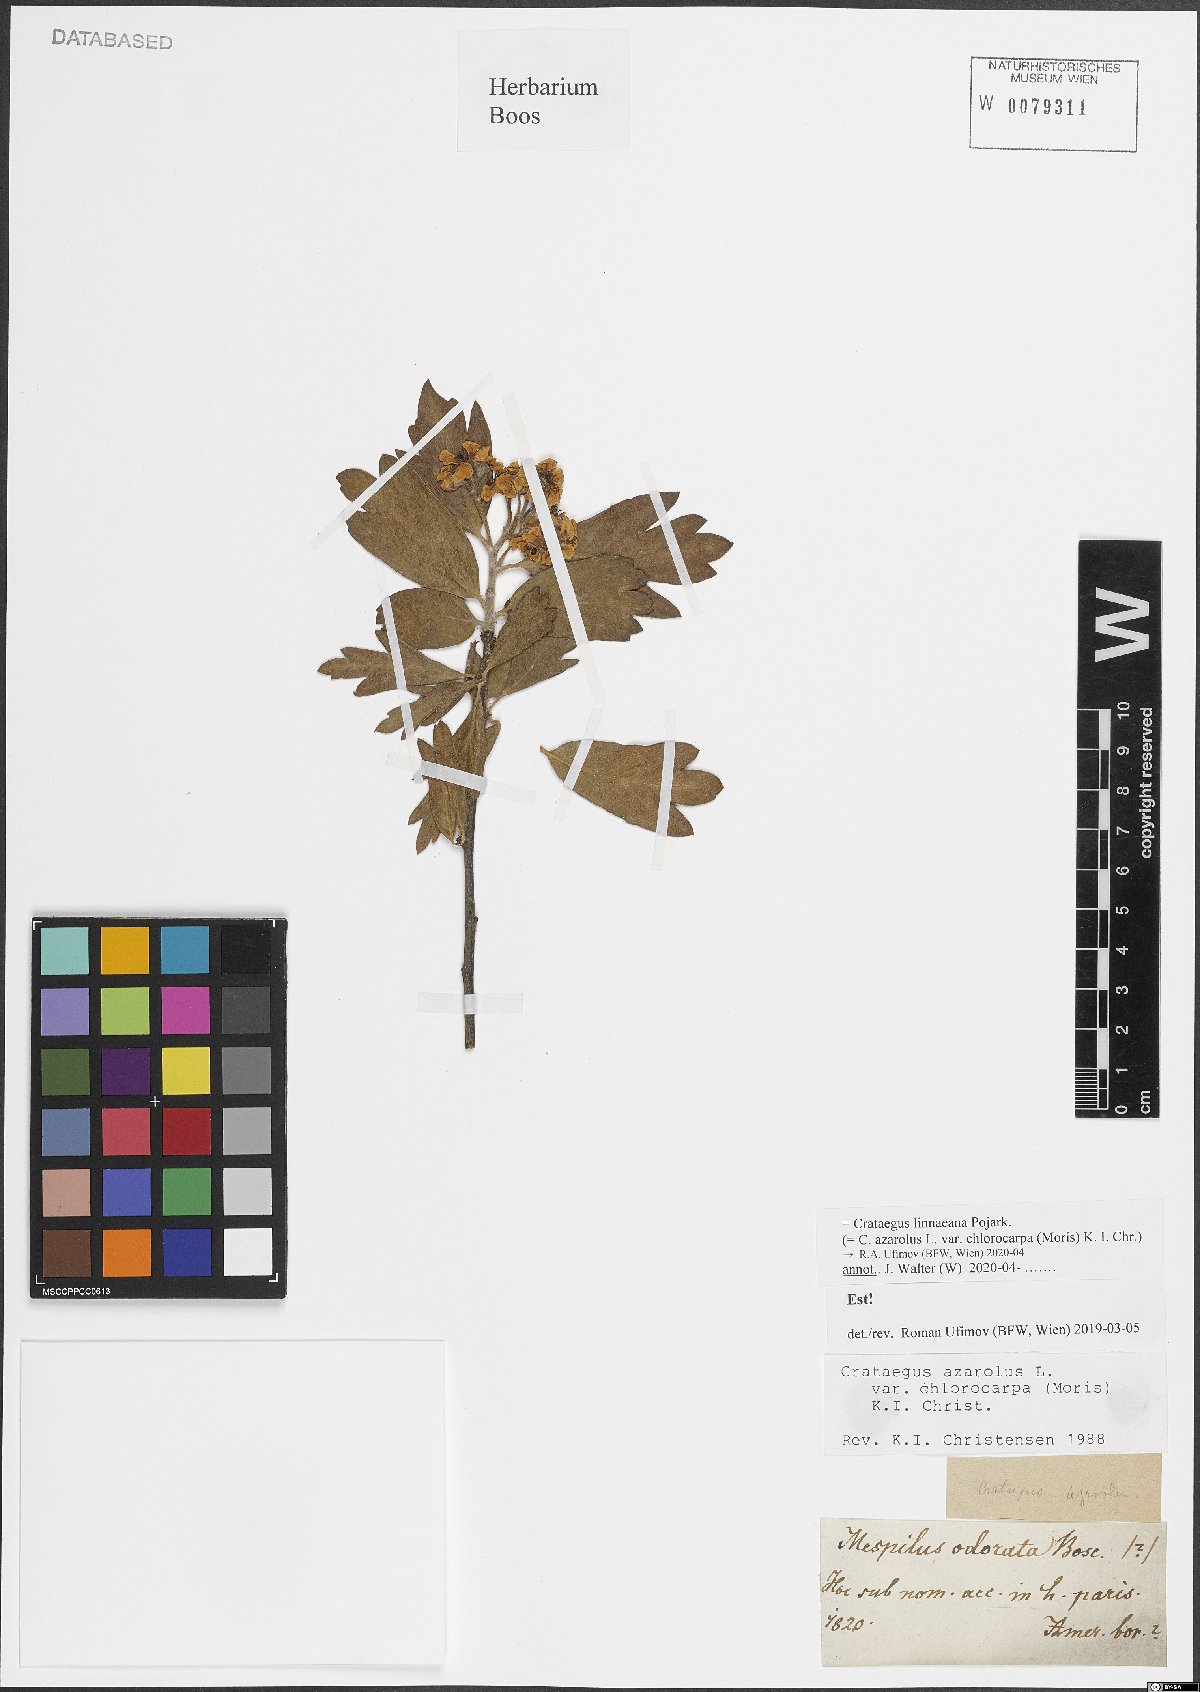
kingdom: Plantae
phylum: Tracheophyta
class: Magnoliopsida
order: Rosales
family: Rosaceae
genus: Crataegus
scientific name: Crataegus azarolus
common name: Azarole
